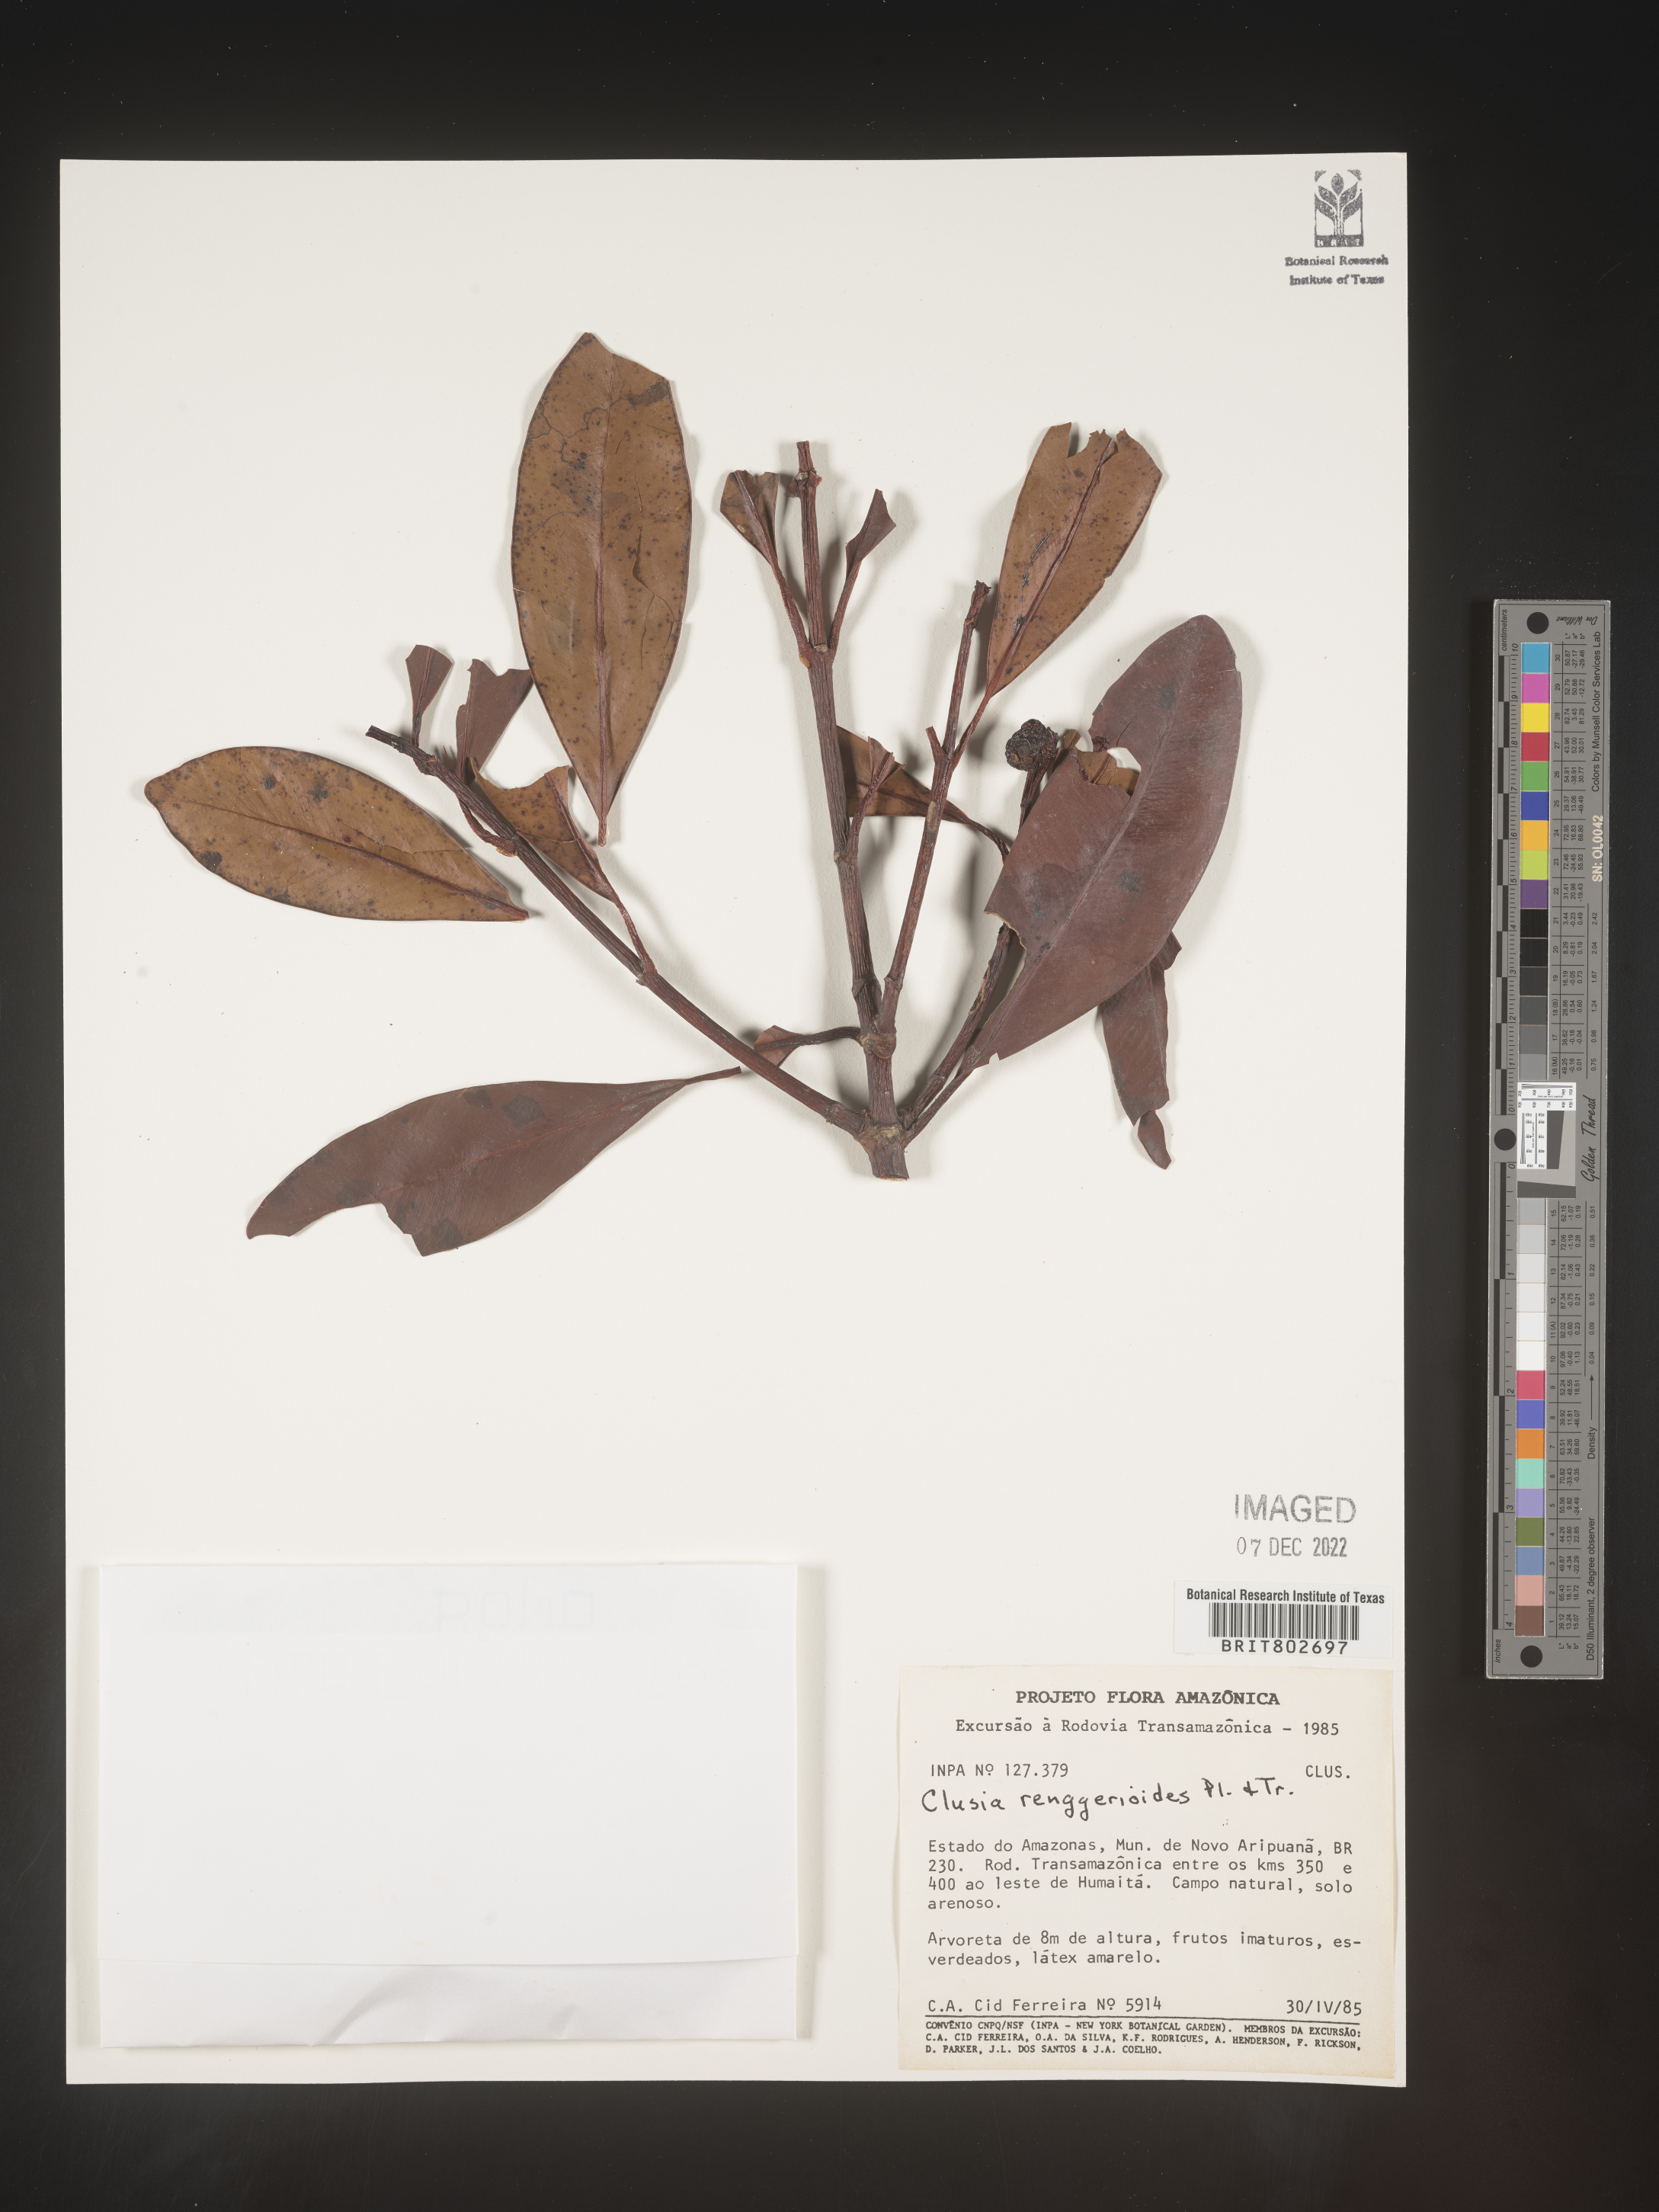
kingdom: Plantae
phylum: Tracheophyta
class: Magnoliopsida
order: Malpighiales
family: Clusiaceae
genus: Clusia
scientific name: Clusia renggerioides
